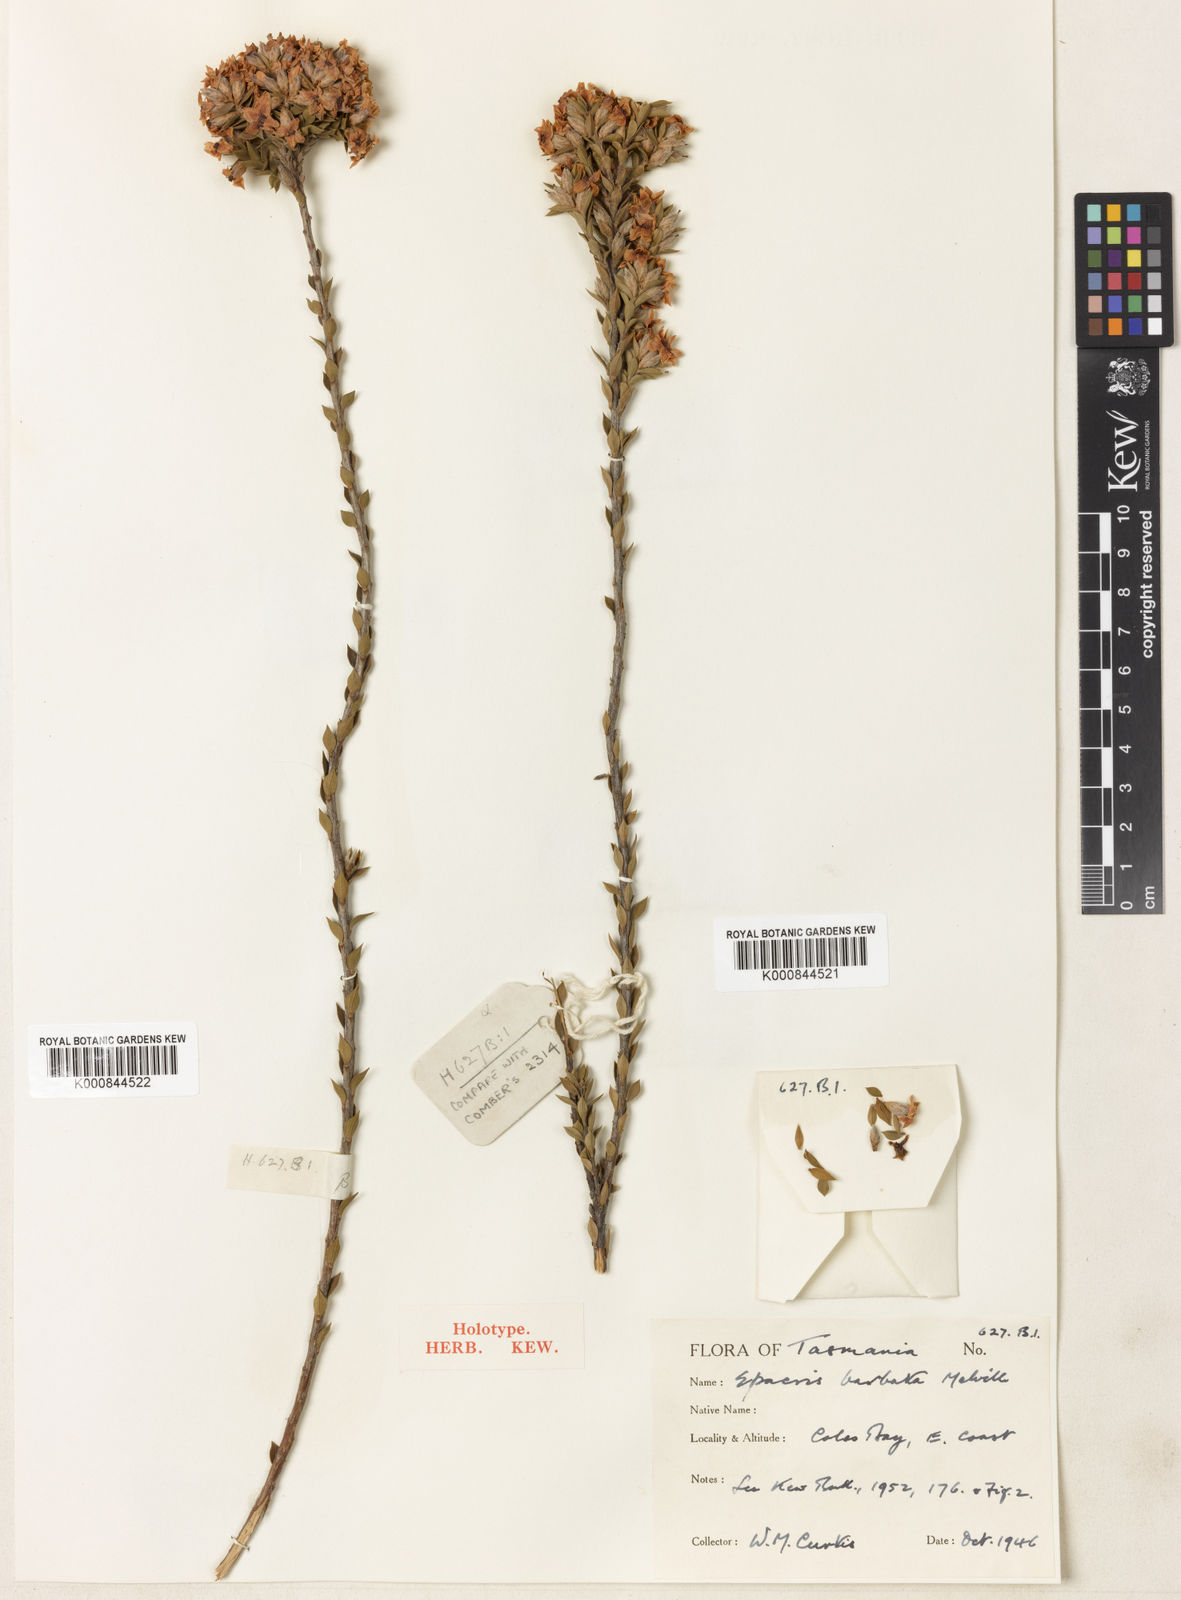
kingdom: Plantae
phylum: Tracheophyta
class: Magnoliopsida
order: Ericales
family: Ericaceae
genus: Epacris
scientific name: Epacris barbata
